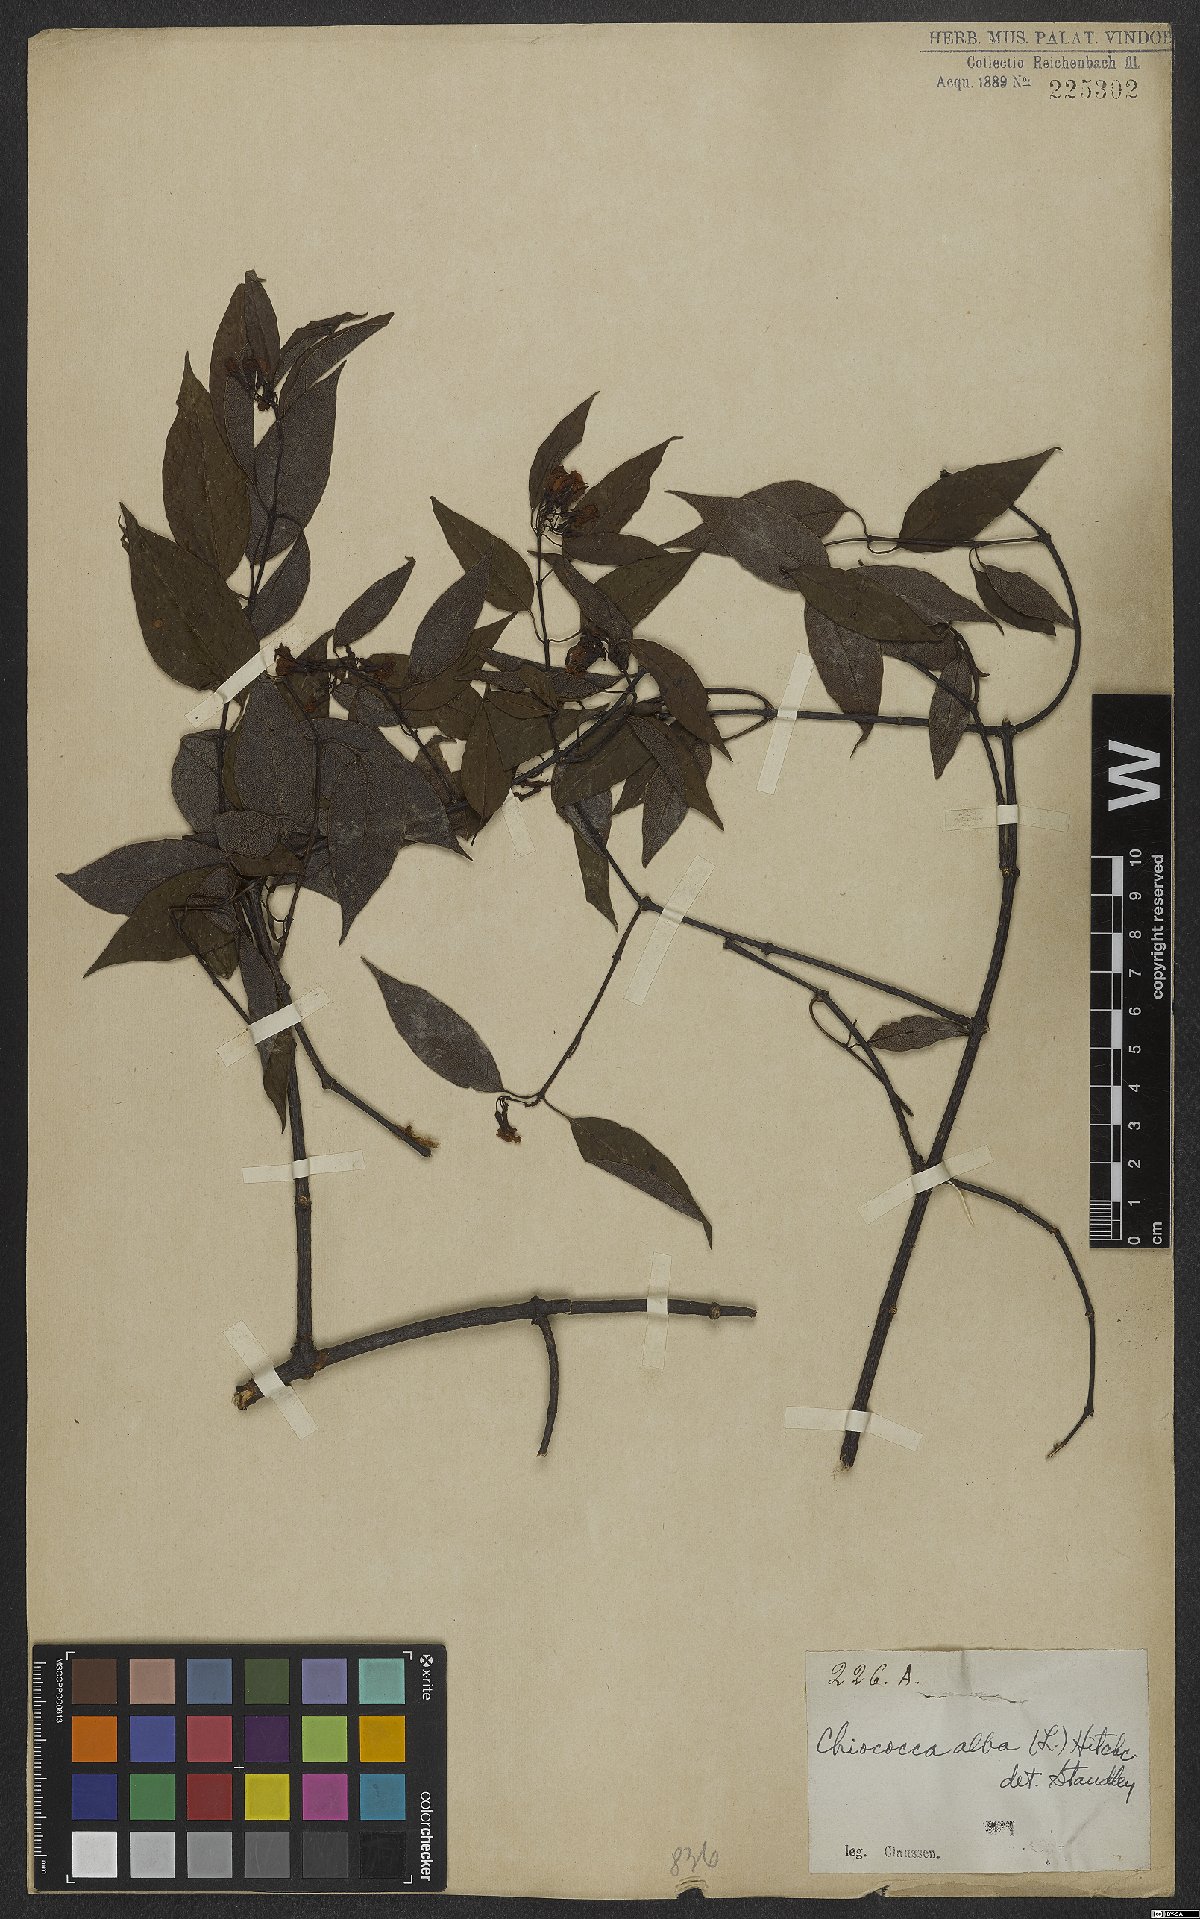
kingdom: Plantae
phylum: Tracheophyta
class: Magnoliopsida
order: Gentianales
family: Rubiaceae
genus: Chiococca
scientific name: Chiococca alba
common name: Snowberry
